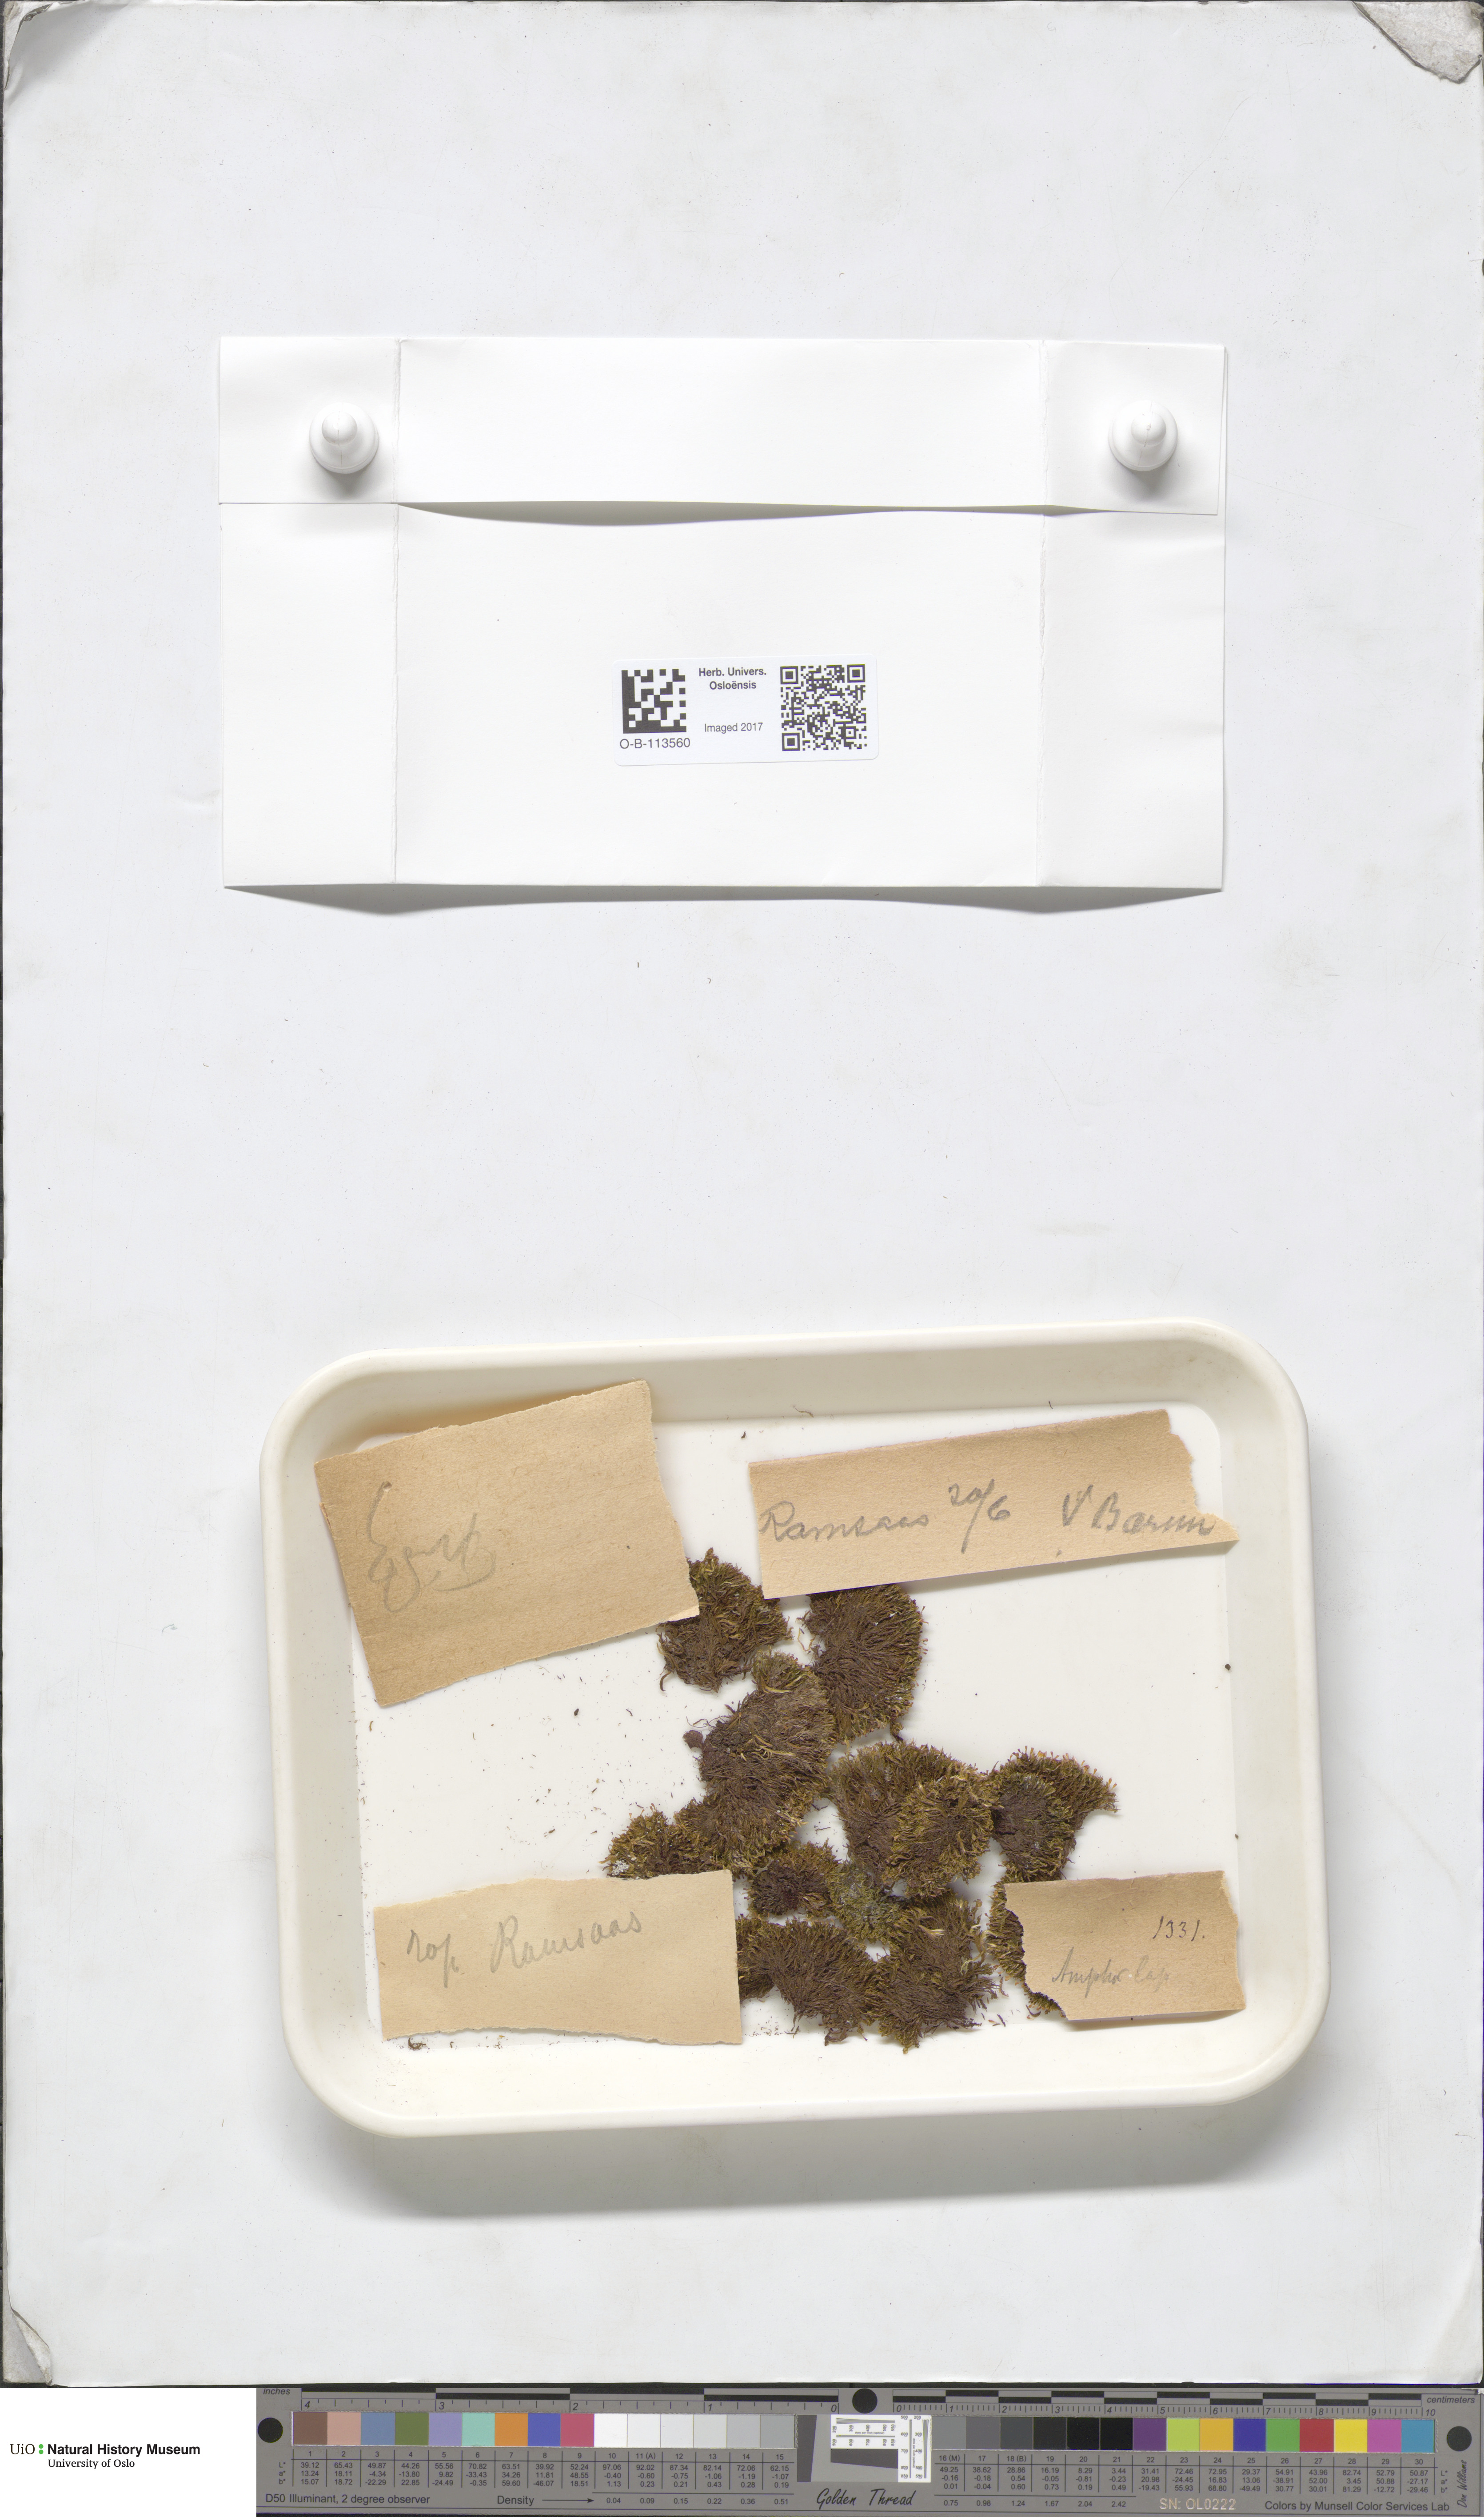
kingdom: Plantae
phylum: Bryophyta
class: Bryopsida
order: Dicranales
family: Amphidiaceae
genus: Amphidium
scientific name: Amphidium lapponicum
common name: Lapland yoke moss
